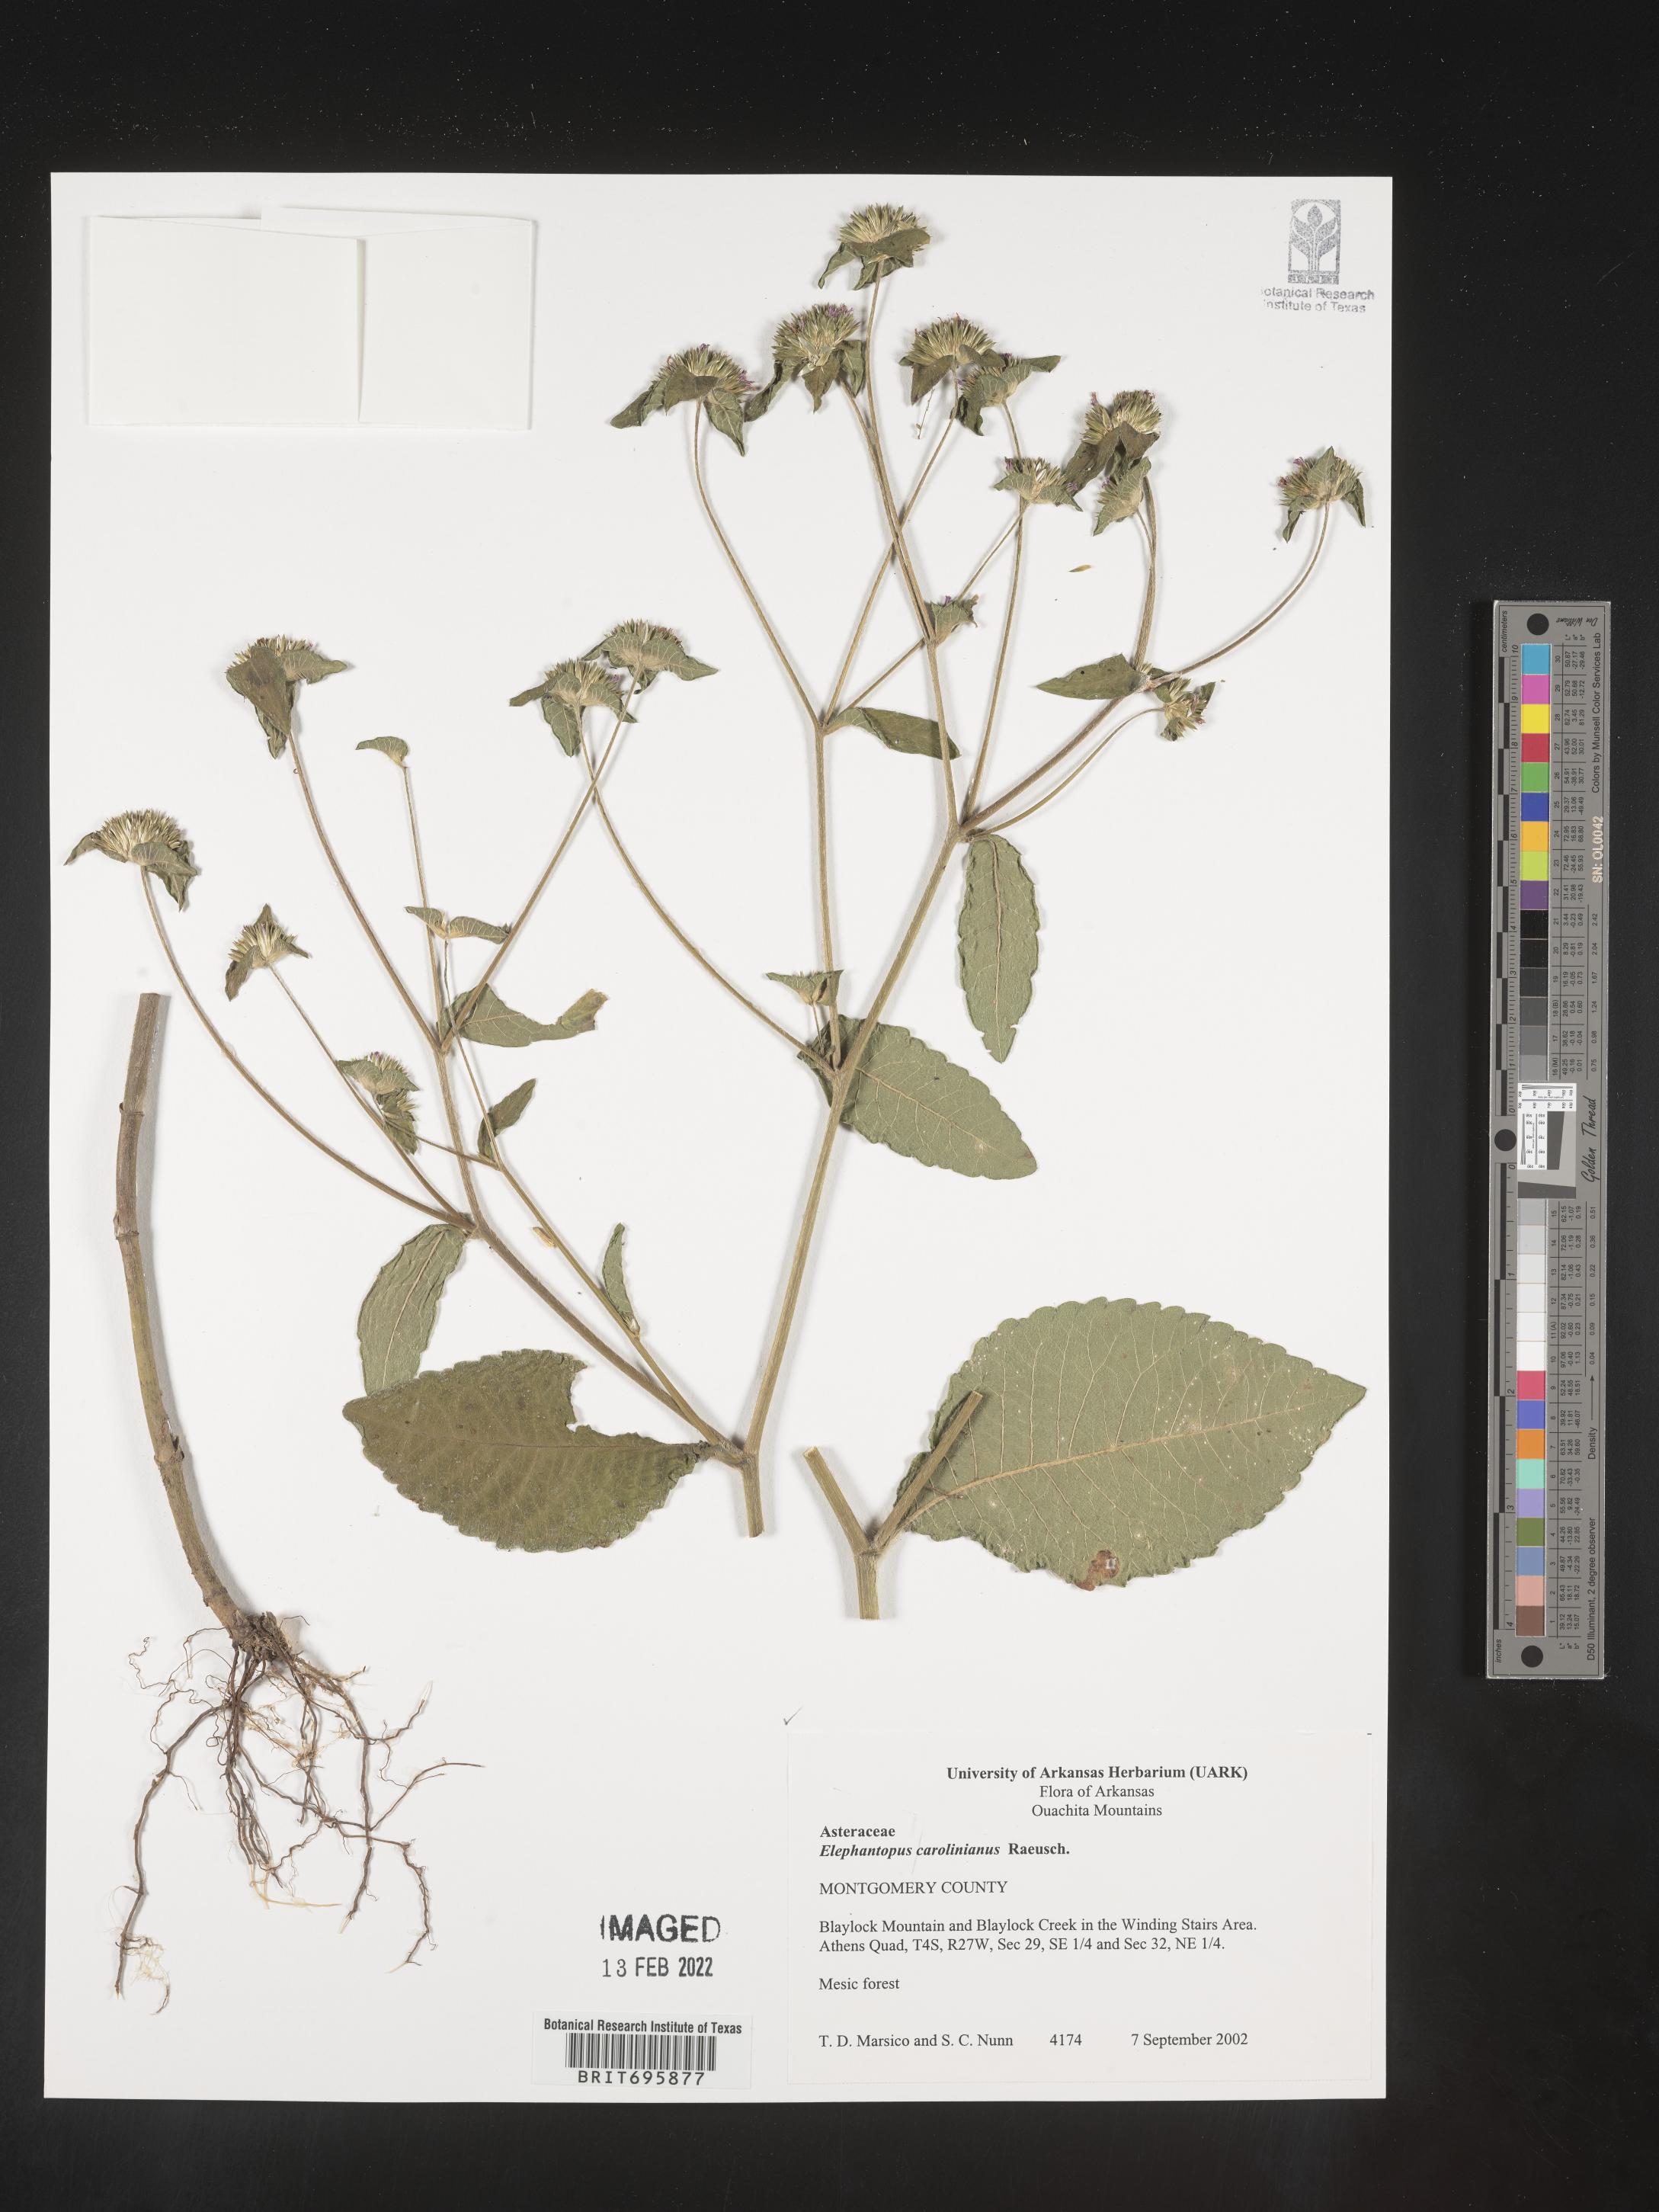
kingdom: Plantae
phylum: Tracheophyta
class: Magnoliopsida
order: Asterales
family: Asteraceae
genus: Elephantopus
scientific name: Elephantopus carolinianus
